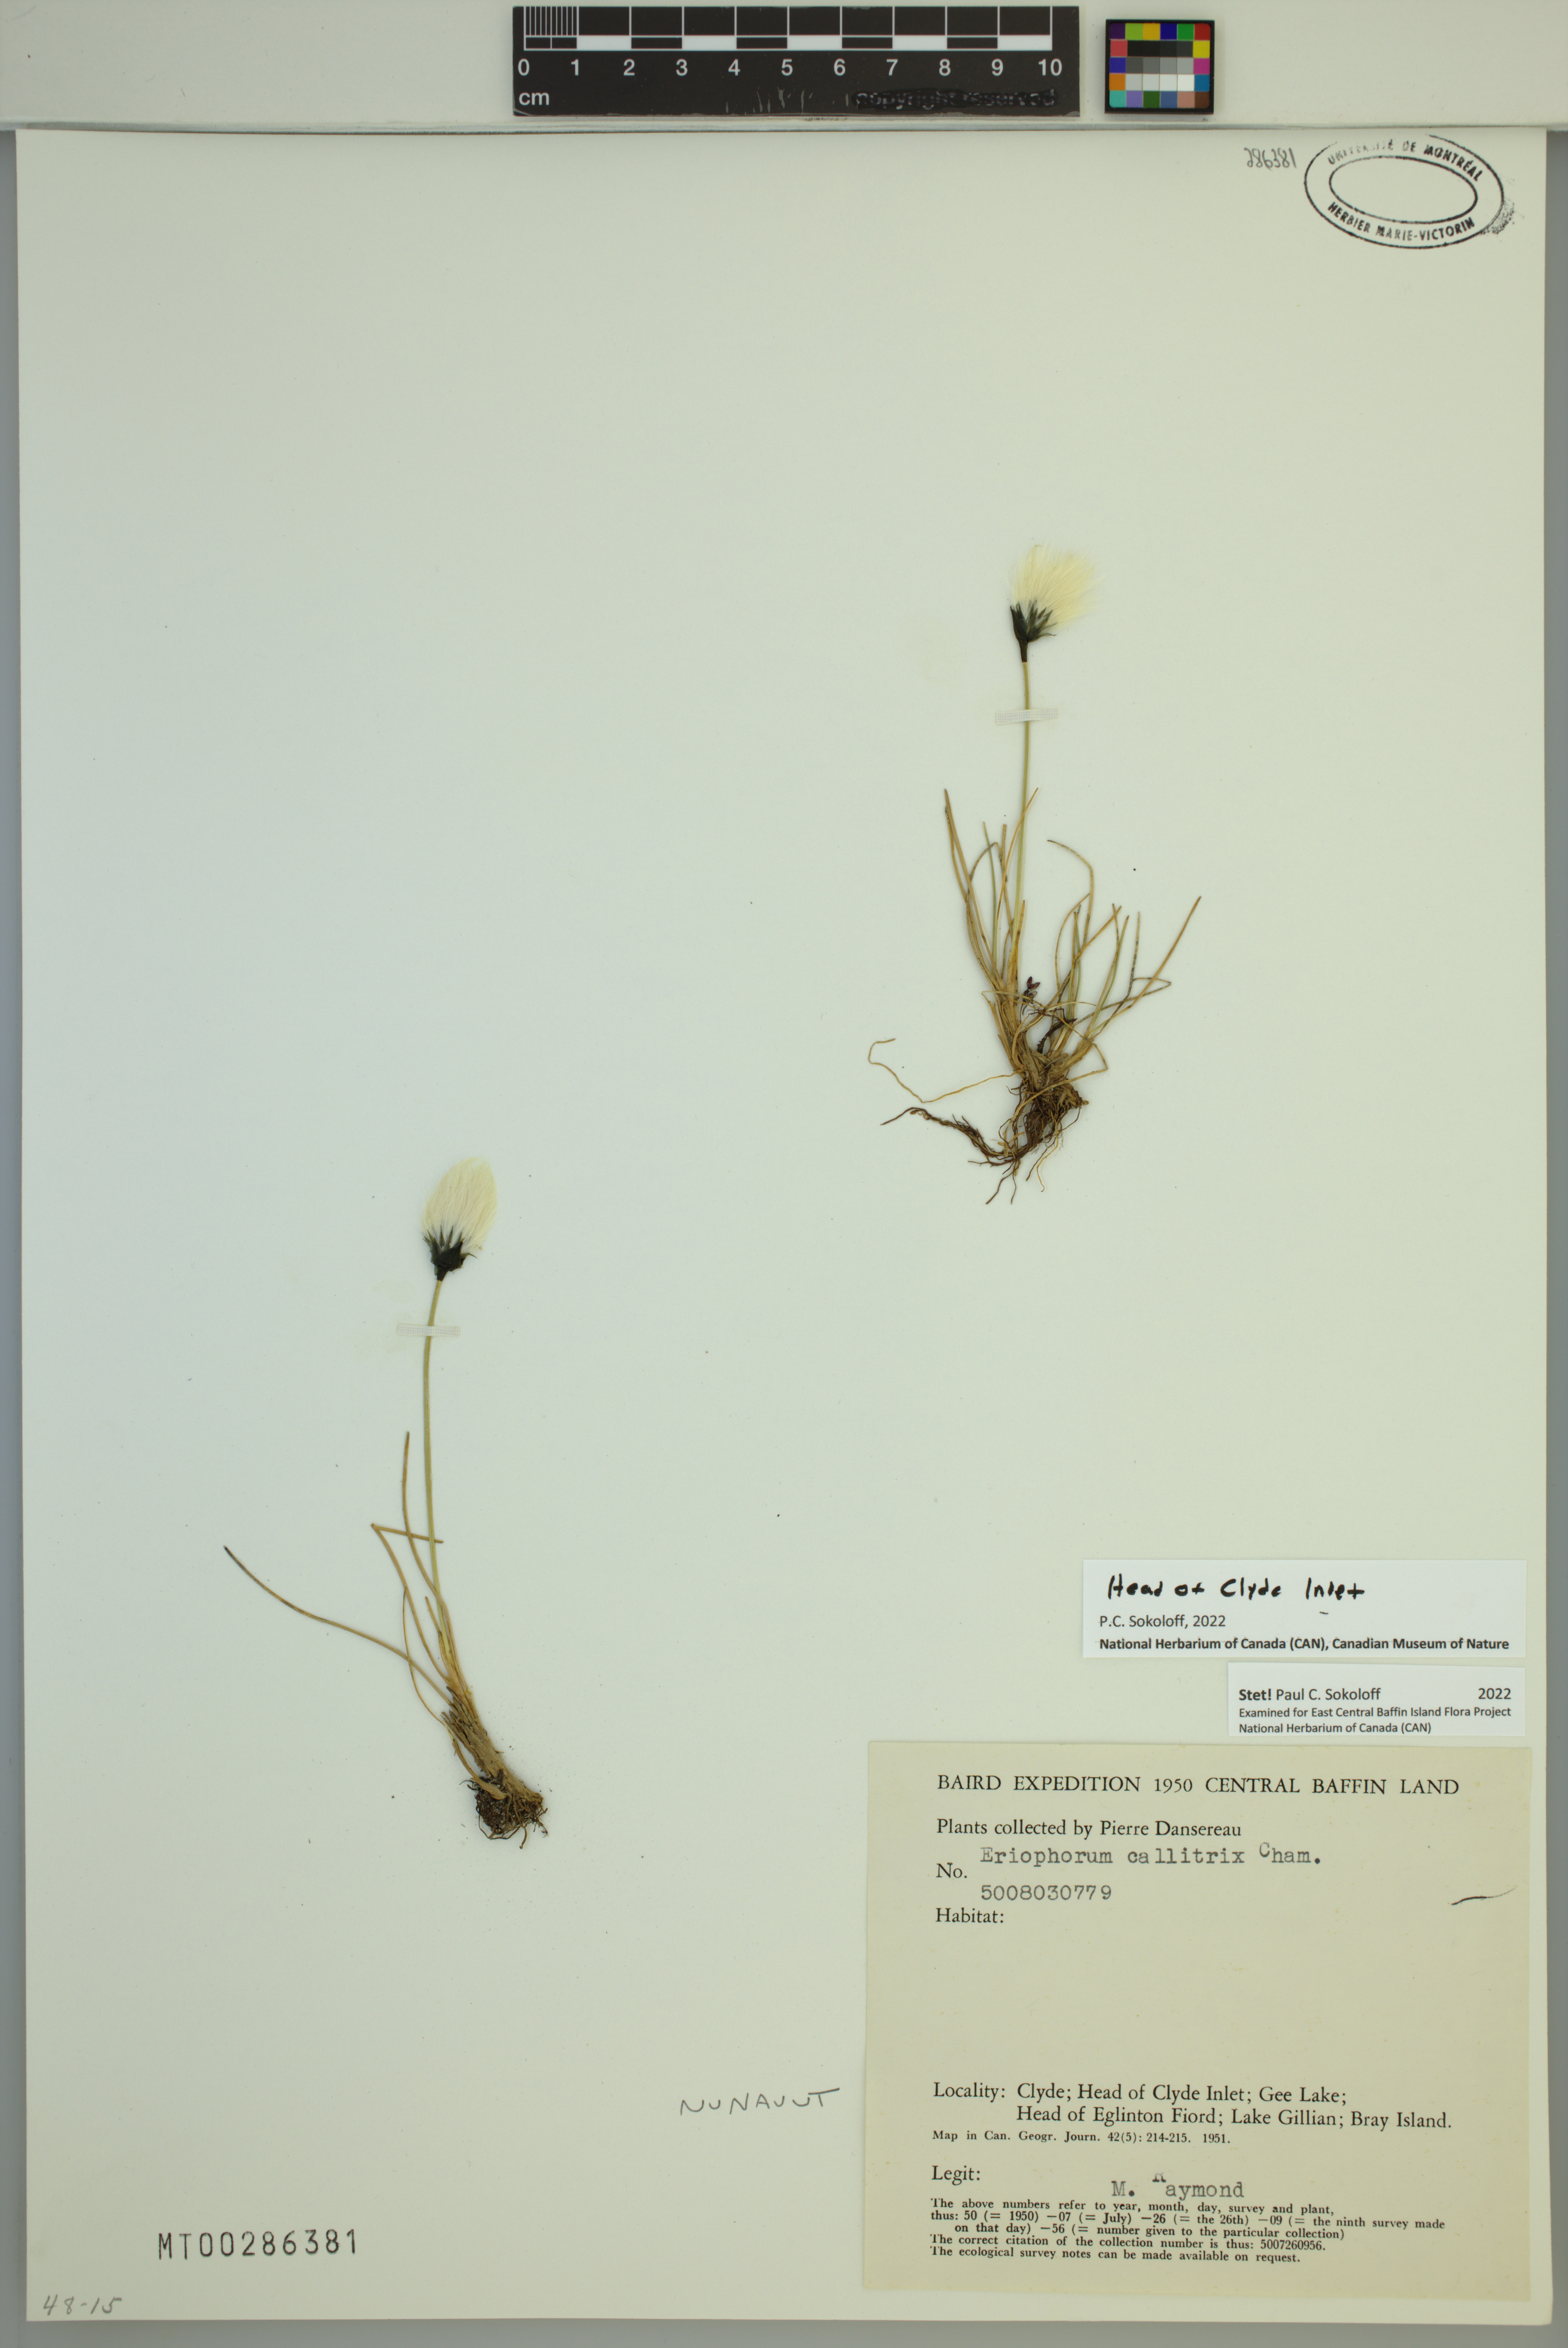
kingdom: Plantae
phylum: Tracheophyta
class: Liliopsida
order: Poales
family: Cyperaceae
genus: Eriophorum
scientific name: Eriophorum callitrix
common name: Arctic cottongrass
